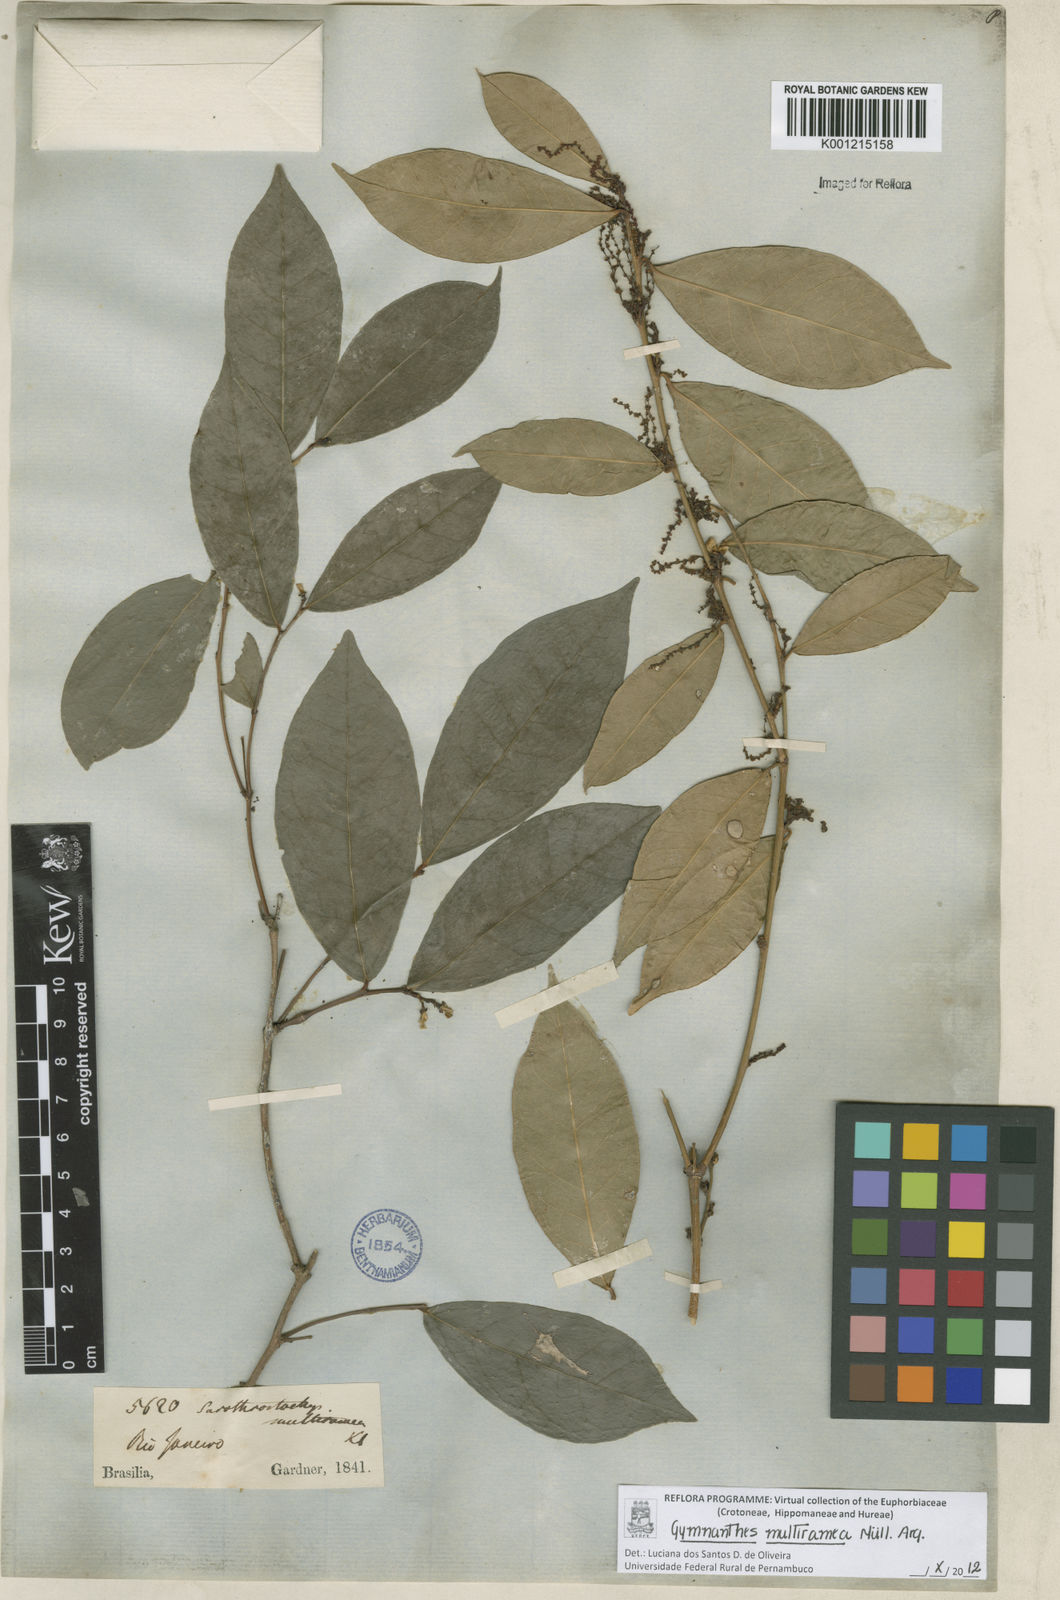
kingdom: Plantae
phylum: Tracheophyta
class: Magnoliopsida
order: Malpighiales
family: Euphorbiaceae
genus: Gymnanthes
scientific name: Gymnanthes
